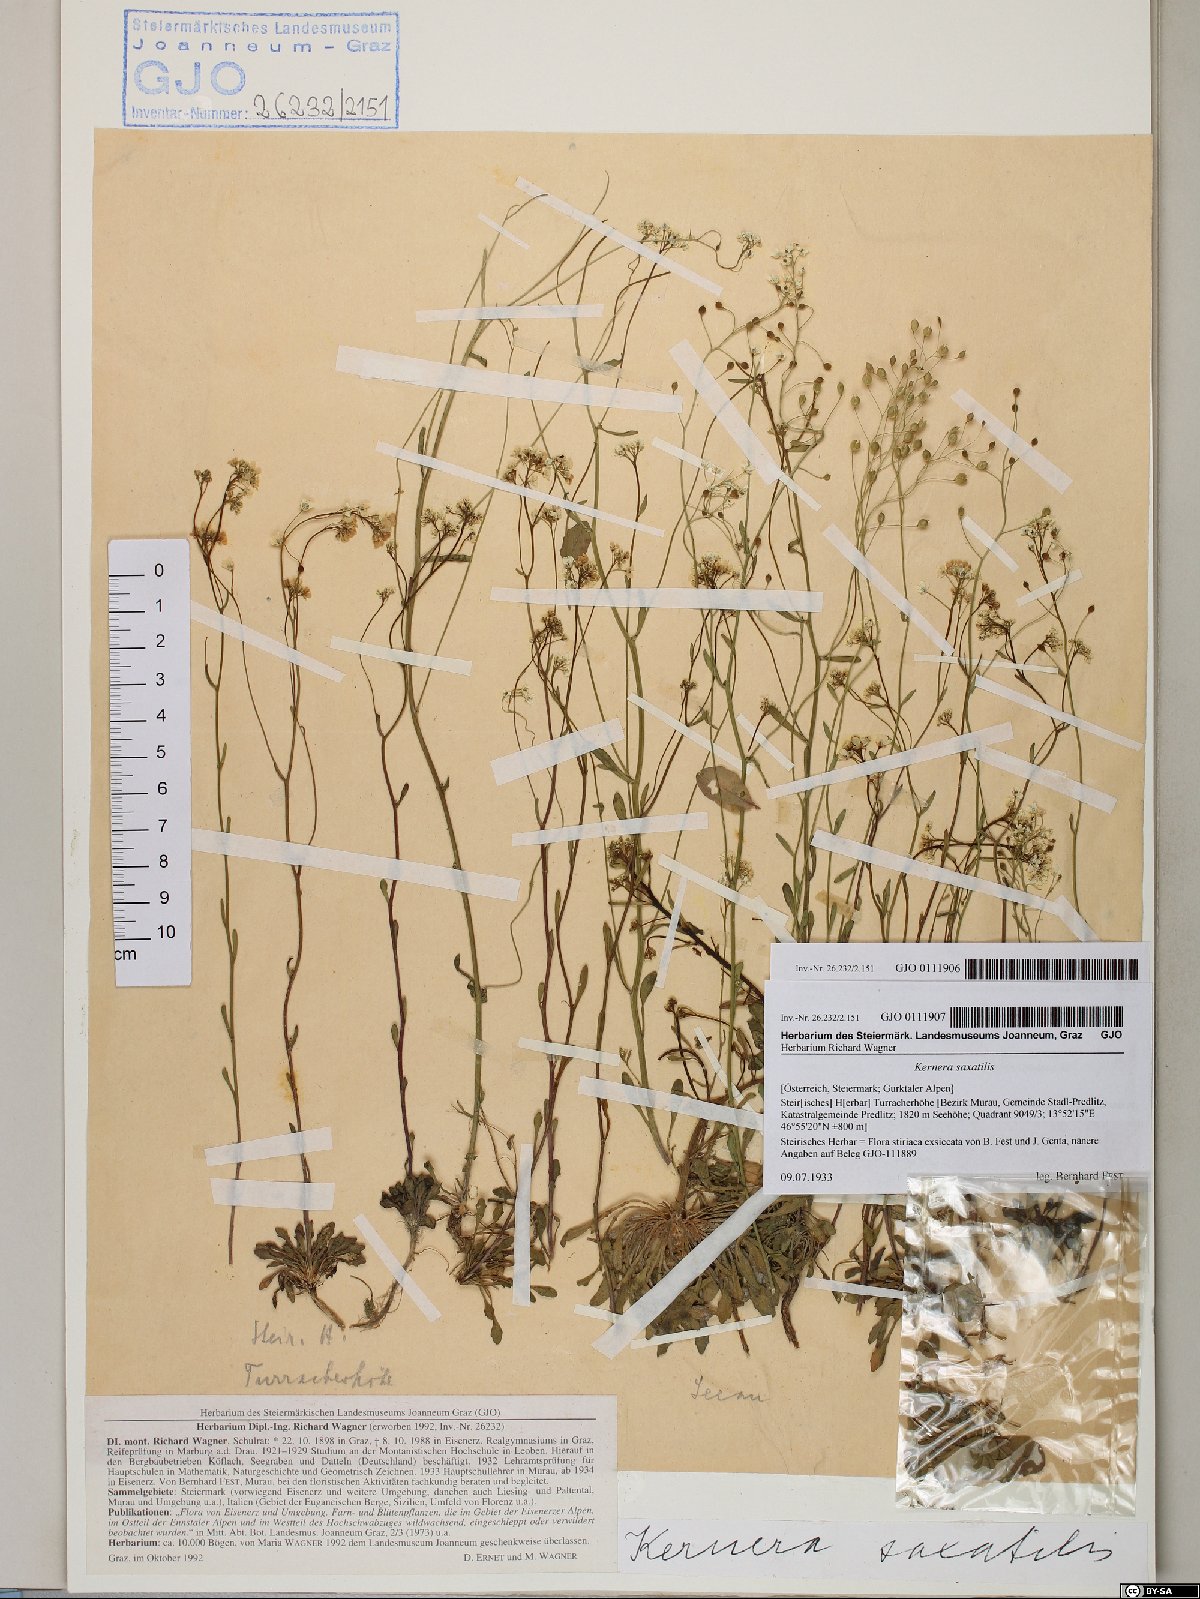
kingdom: Plantae
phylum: Tracheophyta
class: Magnoliopsida
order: Brassicales
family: Brassicaceae
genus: Kernera
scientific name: Kernera saxatilis
